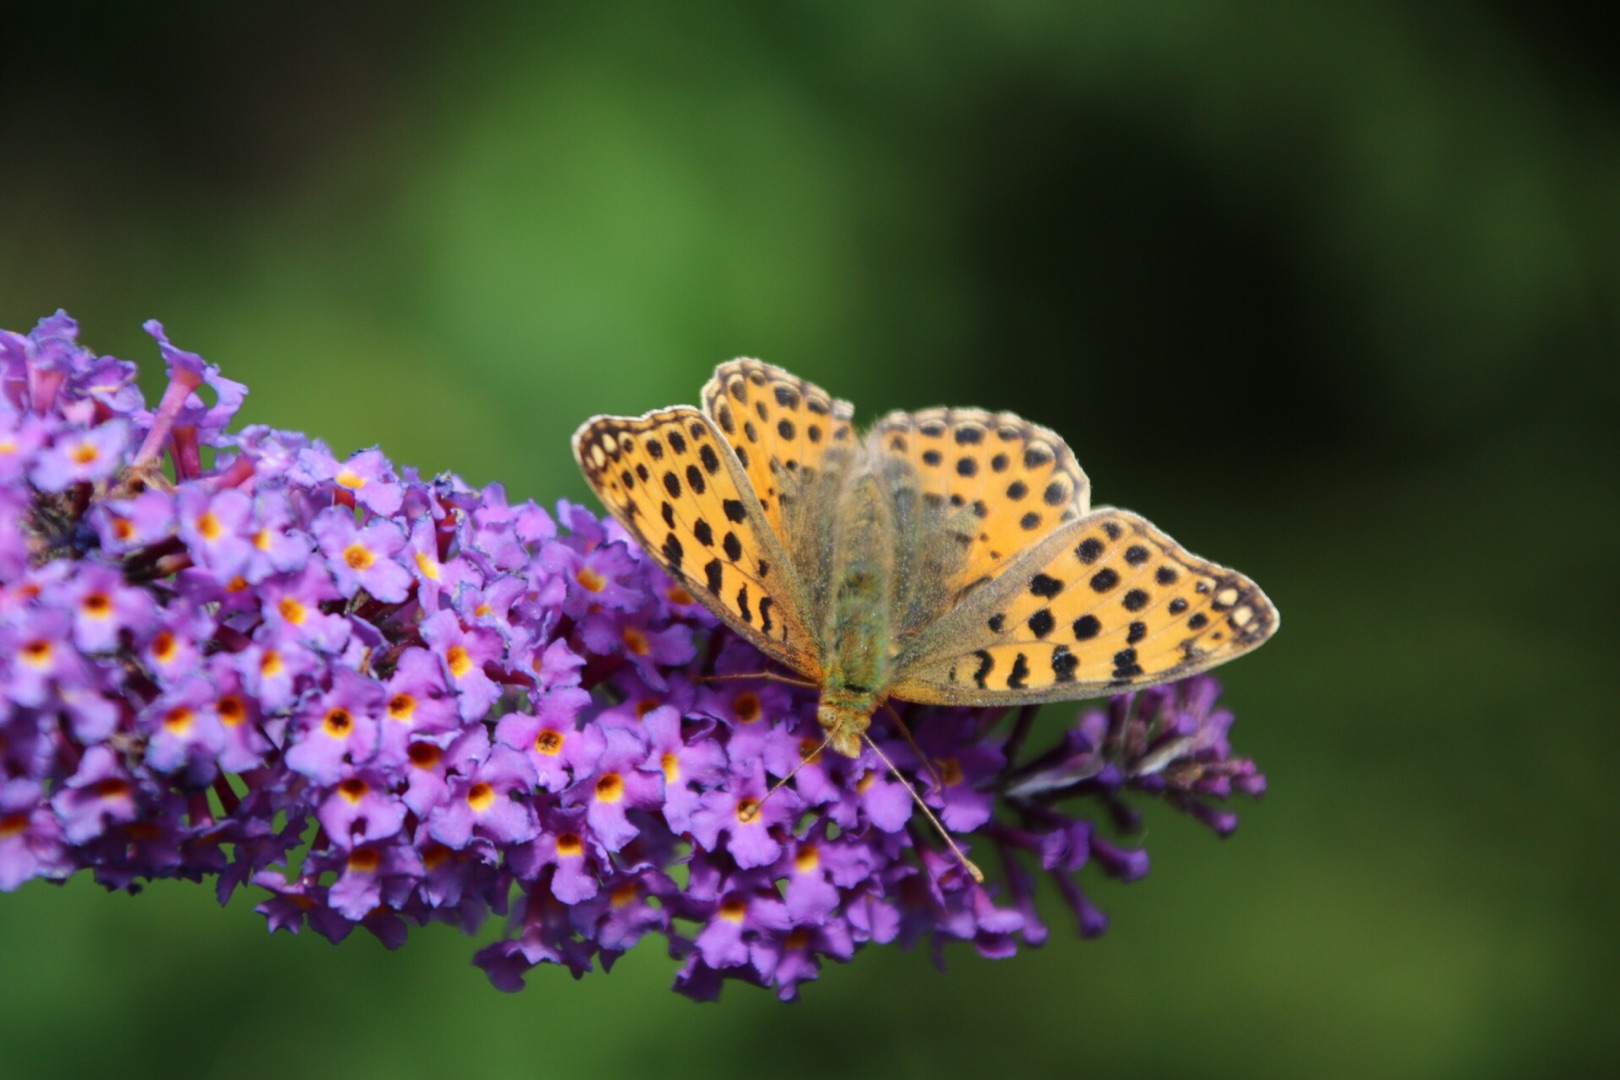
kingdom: Animalia
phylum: Arthropoda
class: Insecta
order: Lepidoptera
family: Nymphalidae
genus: Issoria
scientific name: Issoria lathonia
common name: Storplettet perlemorsommerfugl
